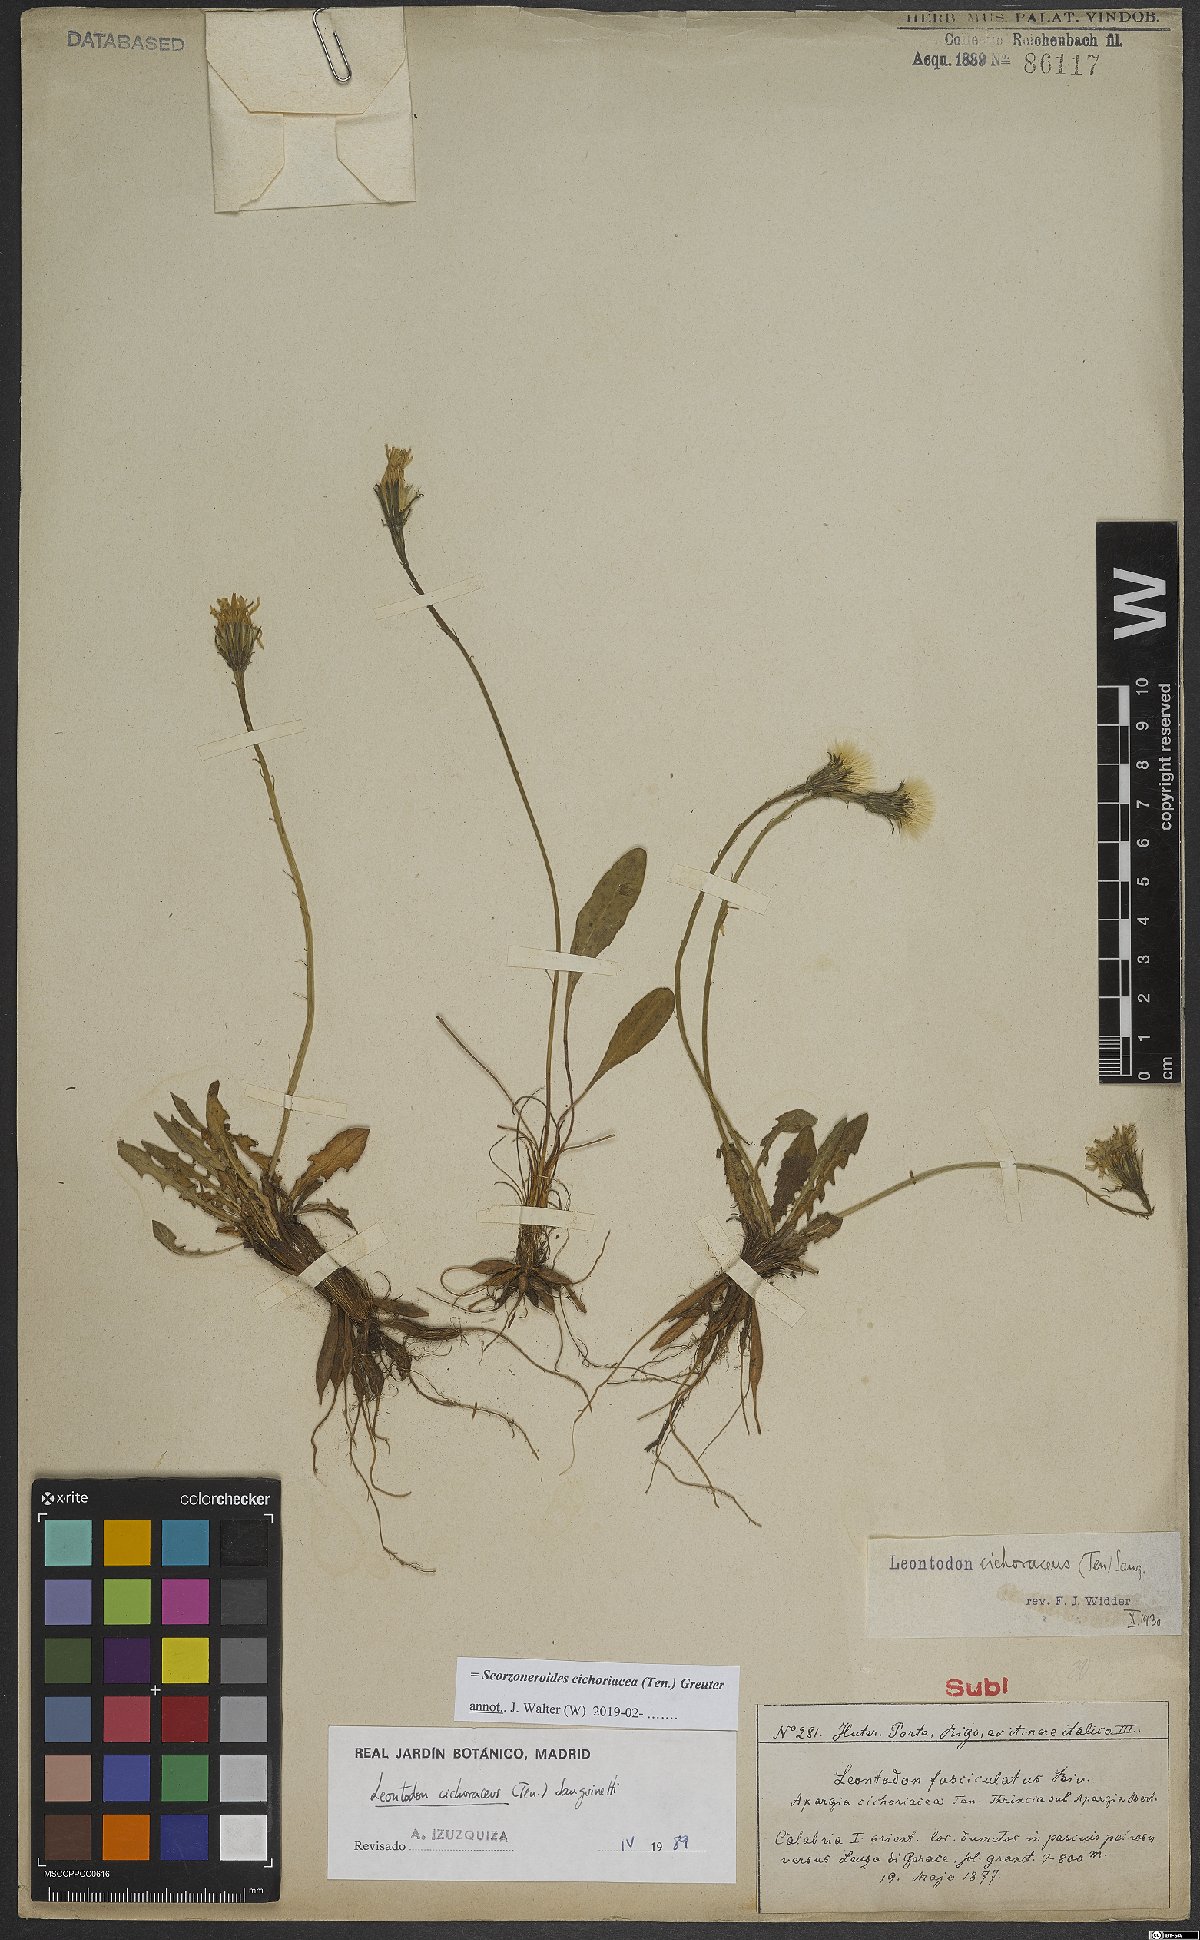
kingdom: Plantae
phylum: Tracheophyta
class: Magnoliopsida
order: Asterales
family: Asteraceae
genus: Scorzoneroides
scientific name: Scorzoneroides cichoriacea
